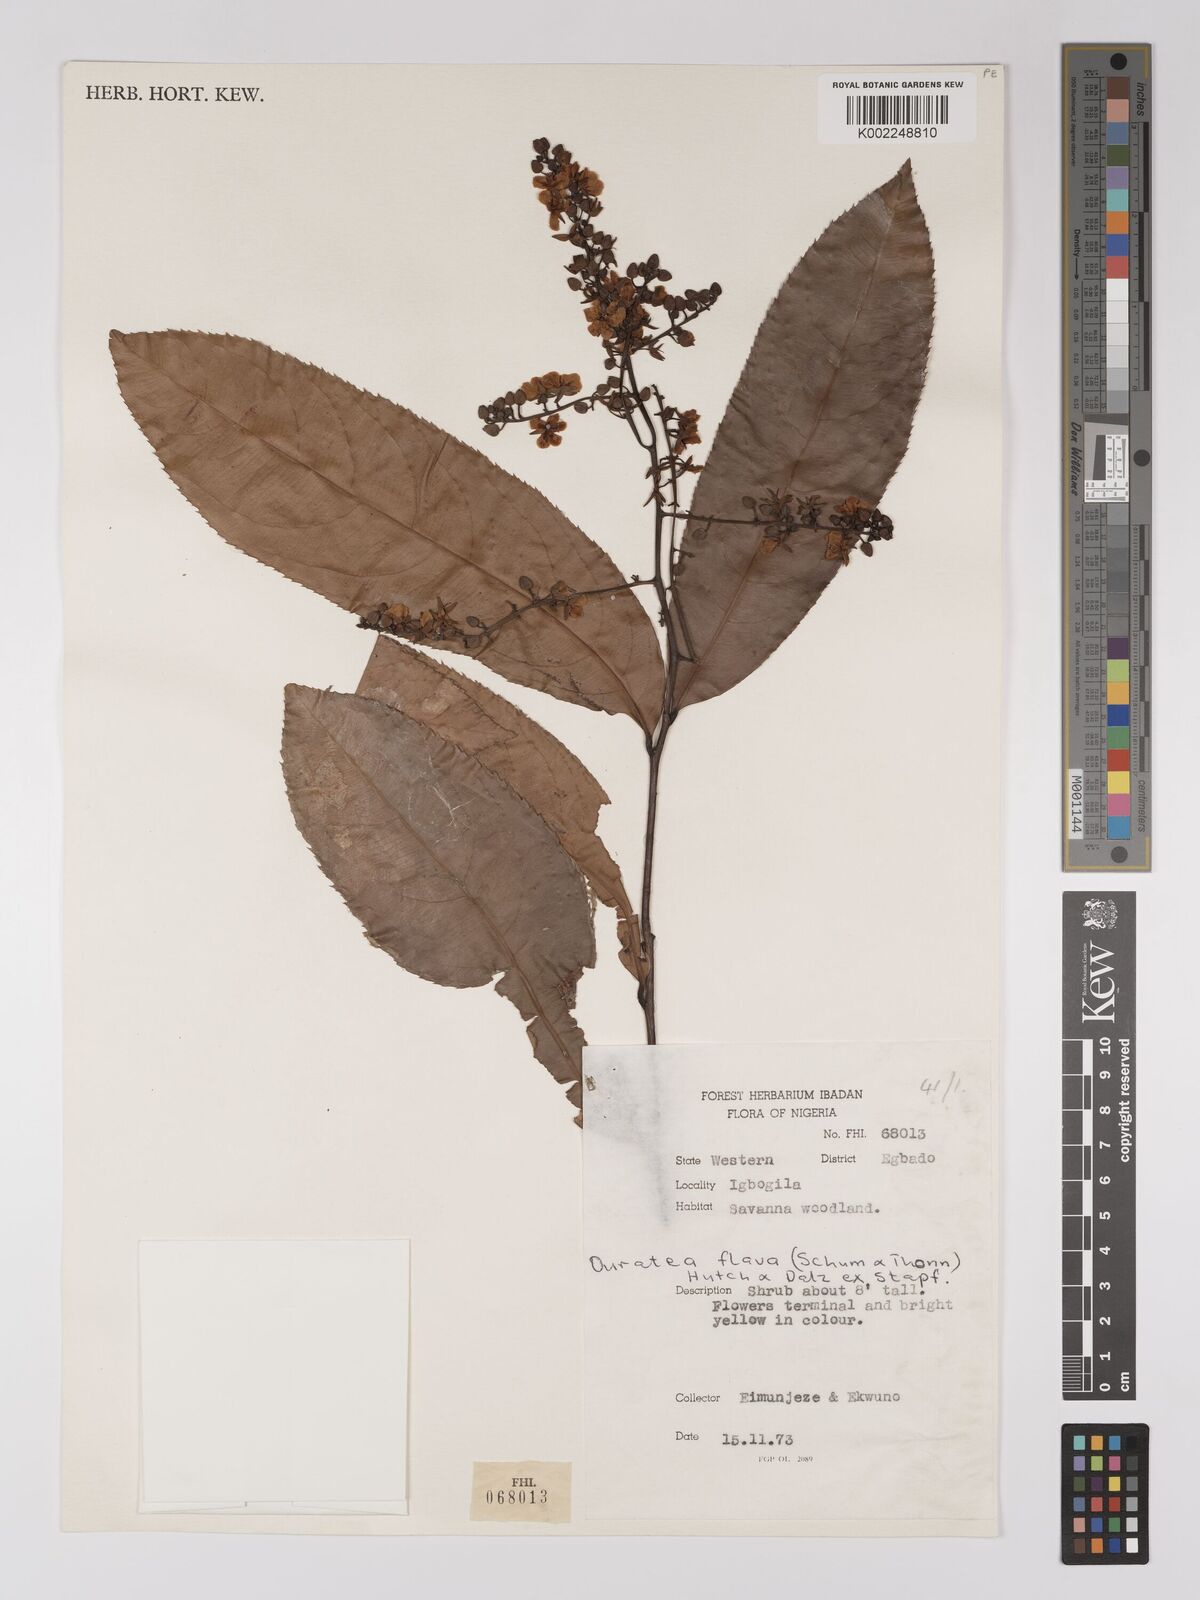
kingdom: Plantae
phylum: Tracheophyta
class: Magnoliopsida
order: Malpighiales
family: Ochnaceae
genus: Campylospermum
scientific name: Campylospermum flavum
